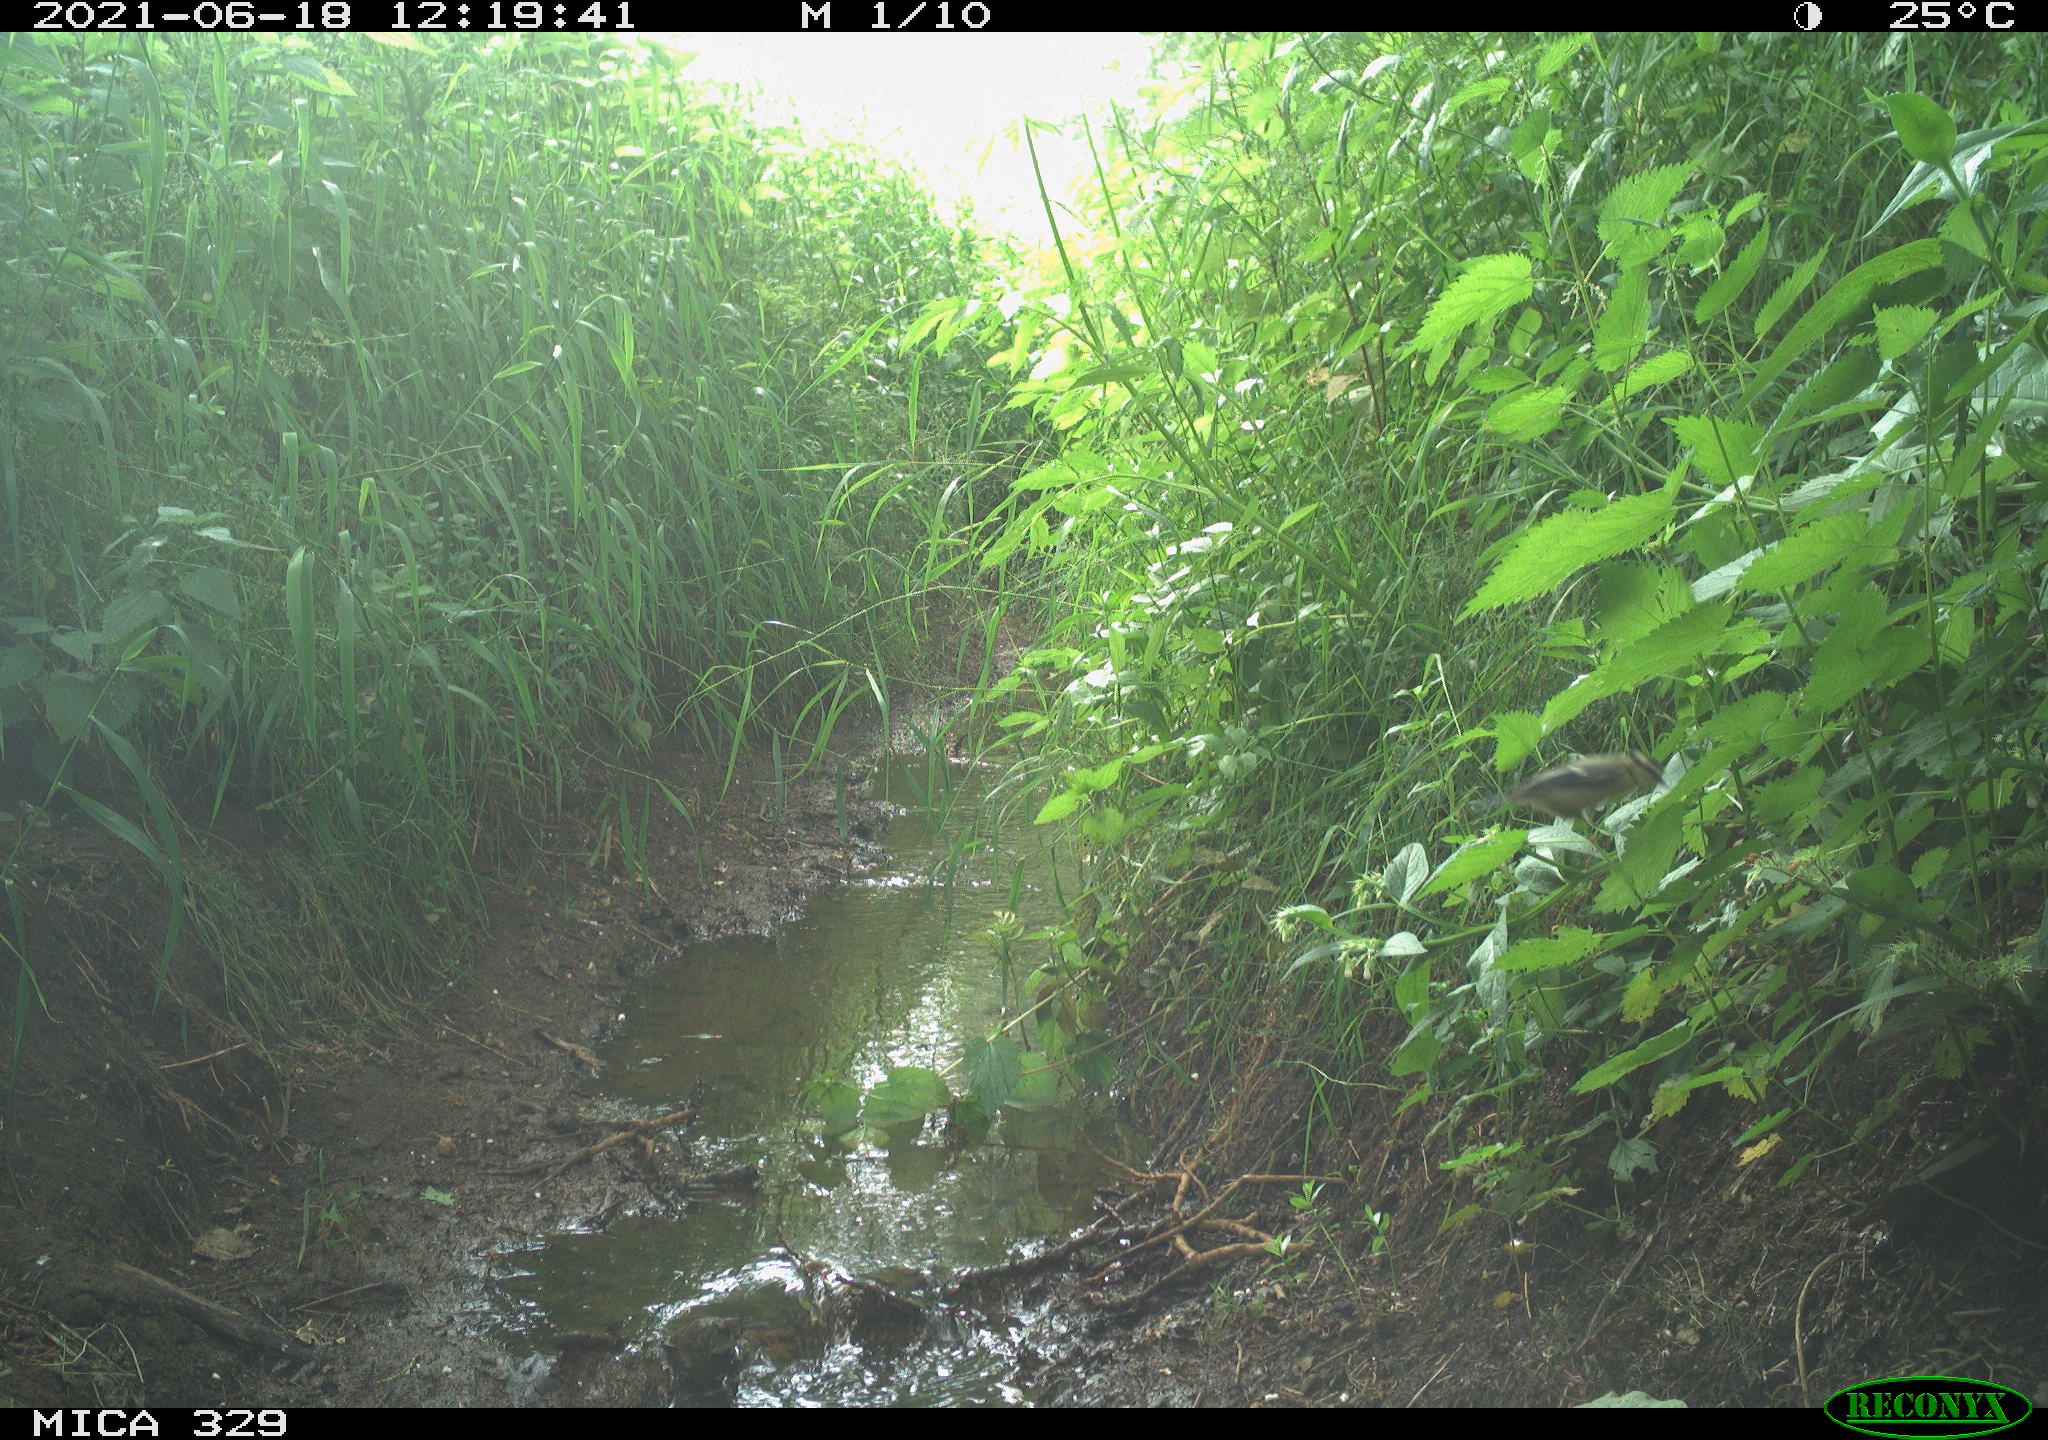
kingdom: Animalia
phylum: Chordata
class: Aves
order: Passeriformes
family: Paridae
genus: Cyanistes
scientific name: Cyanistes caeruleus
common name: Eurasian blue tit
